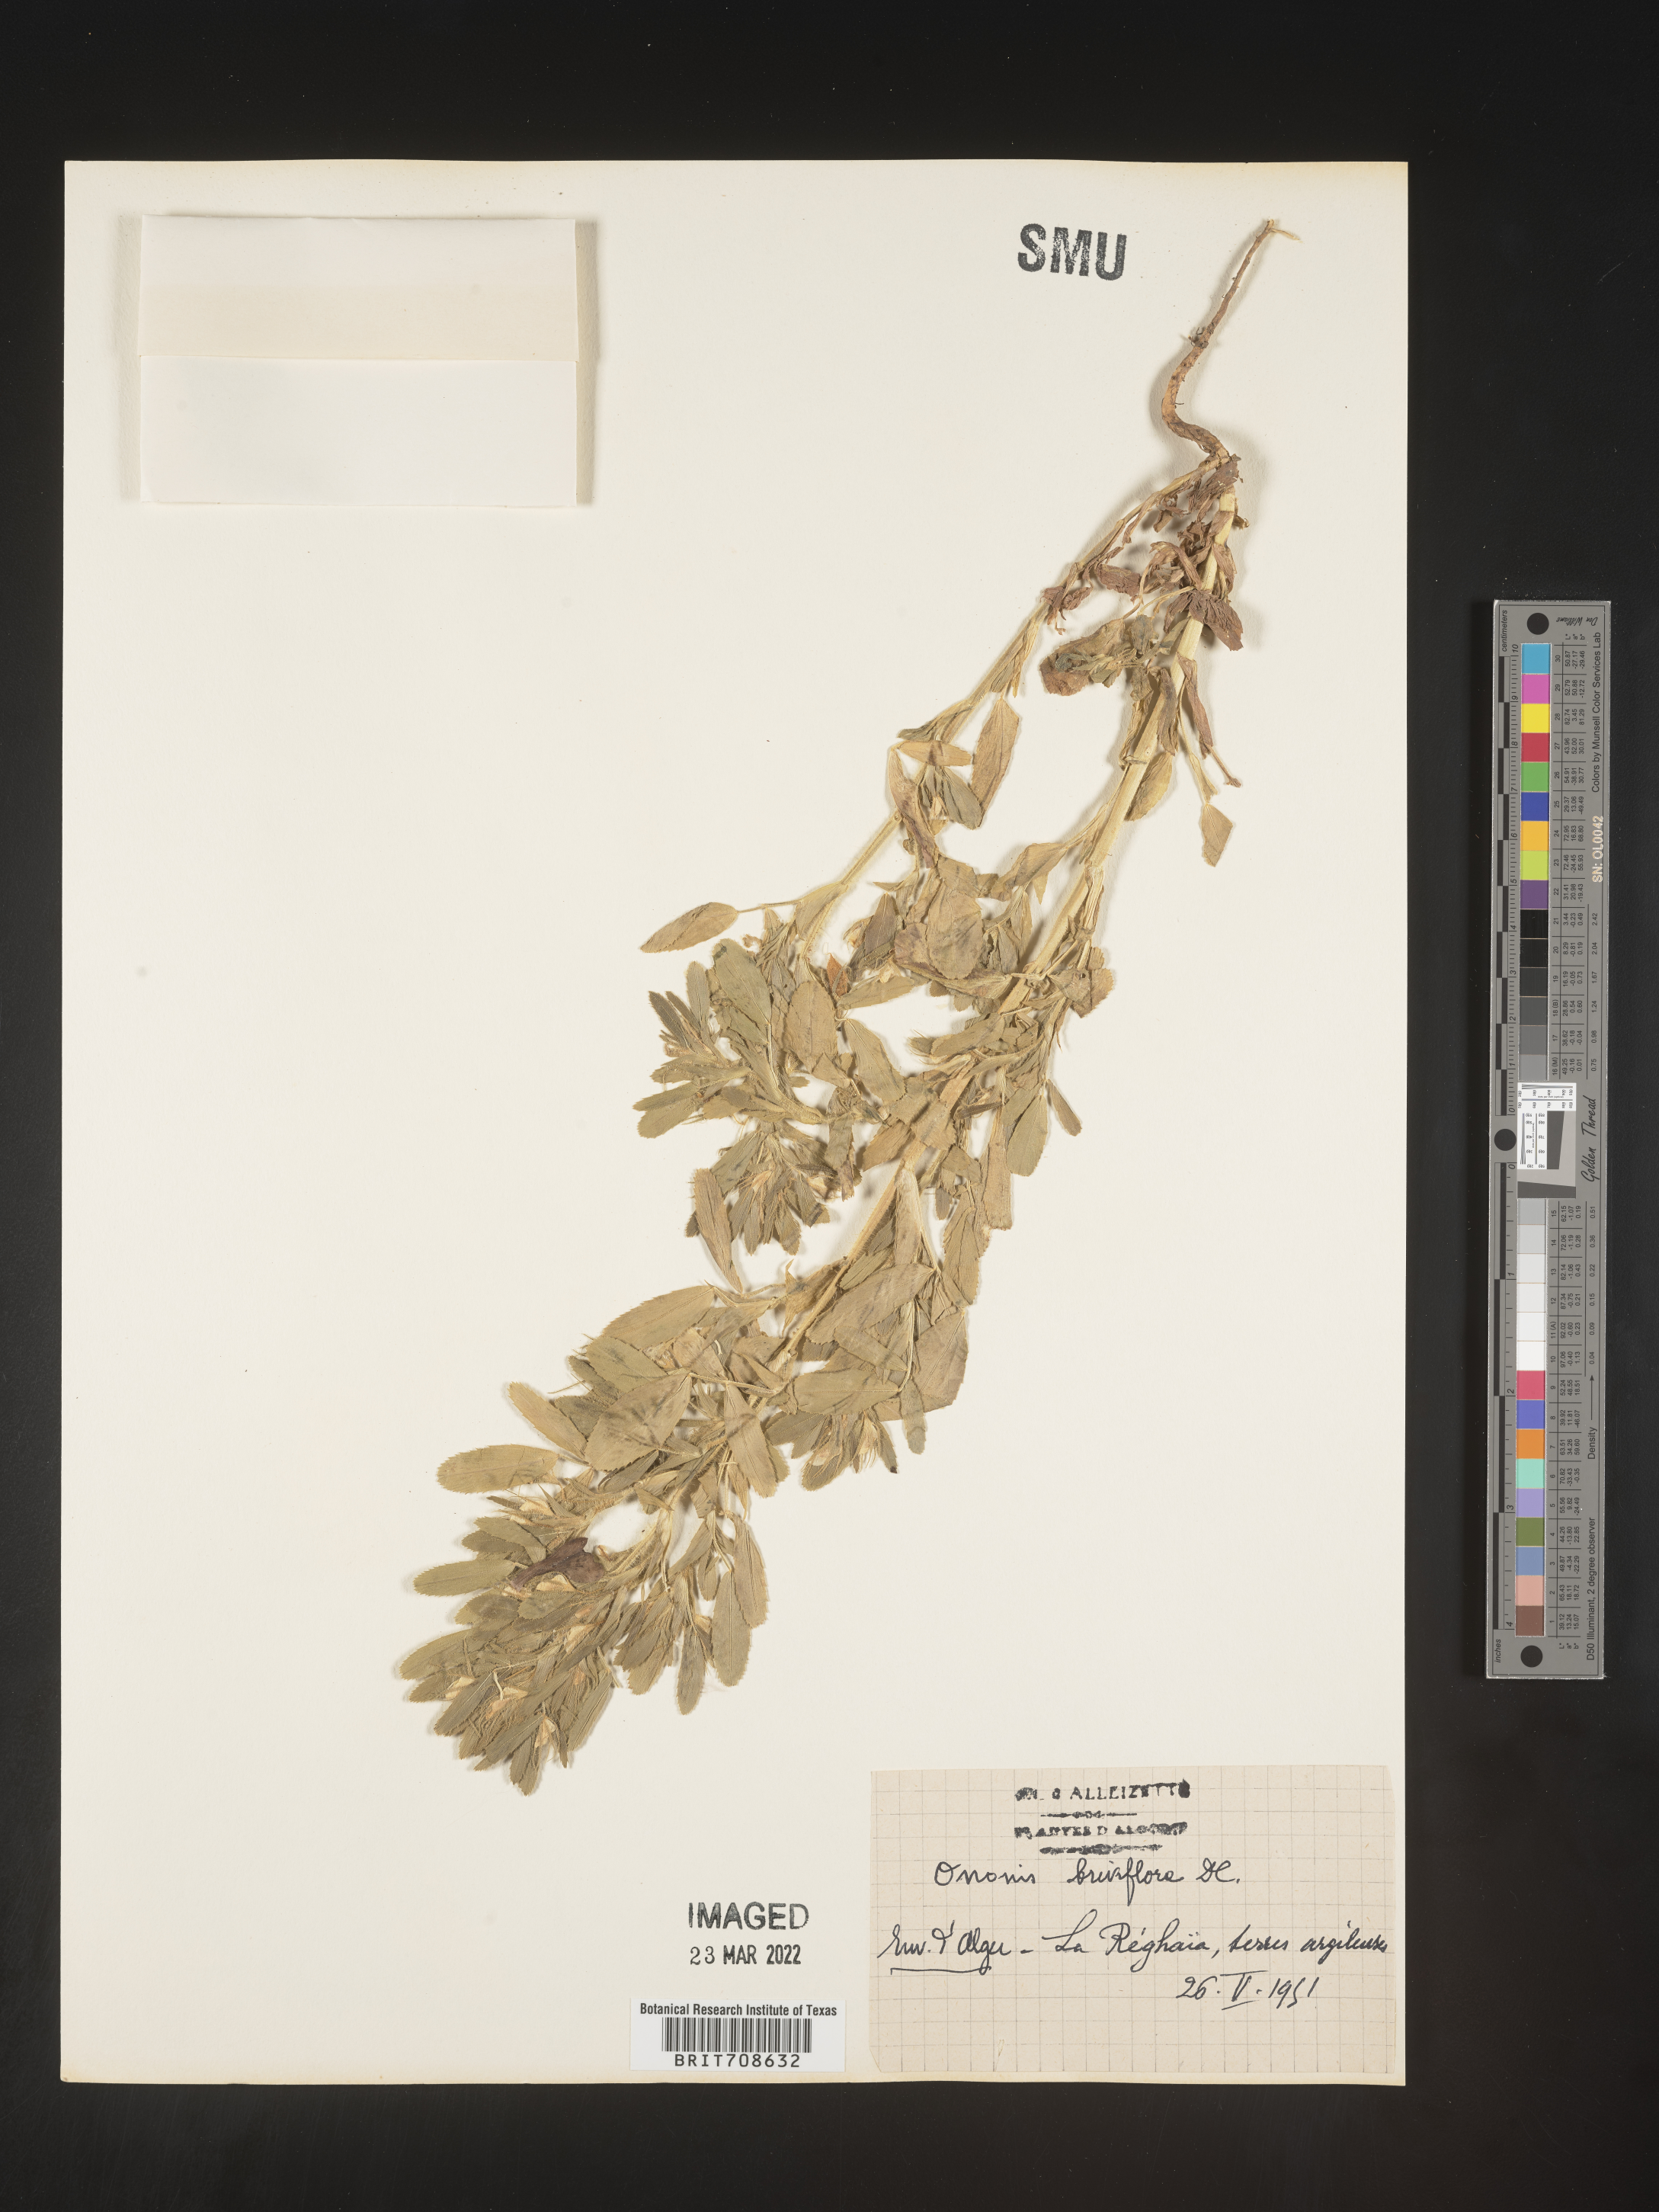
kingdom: Plantae
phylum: Tracheophyta
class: Magnoliopsida
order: Fabales
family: Fabaceae
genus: Ononis
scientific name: Ononis
